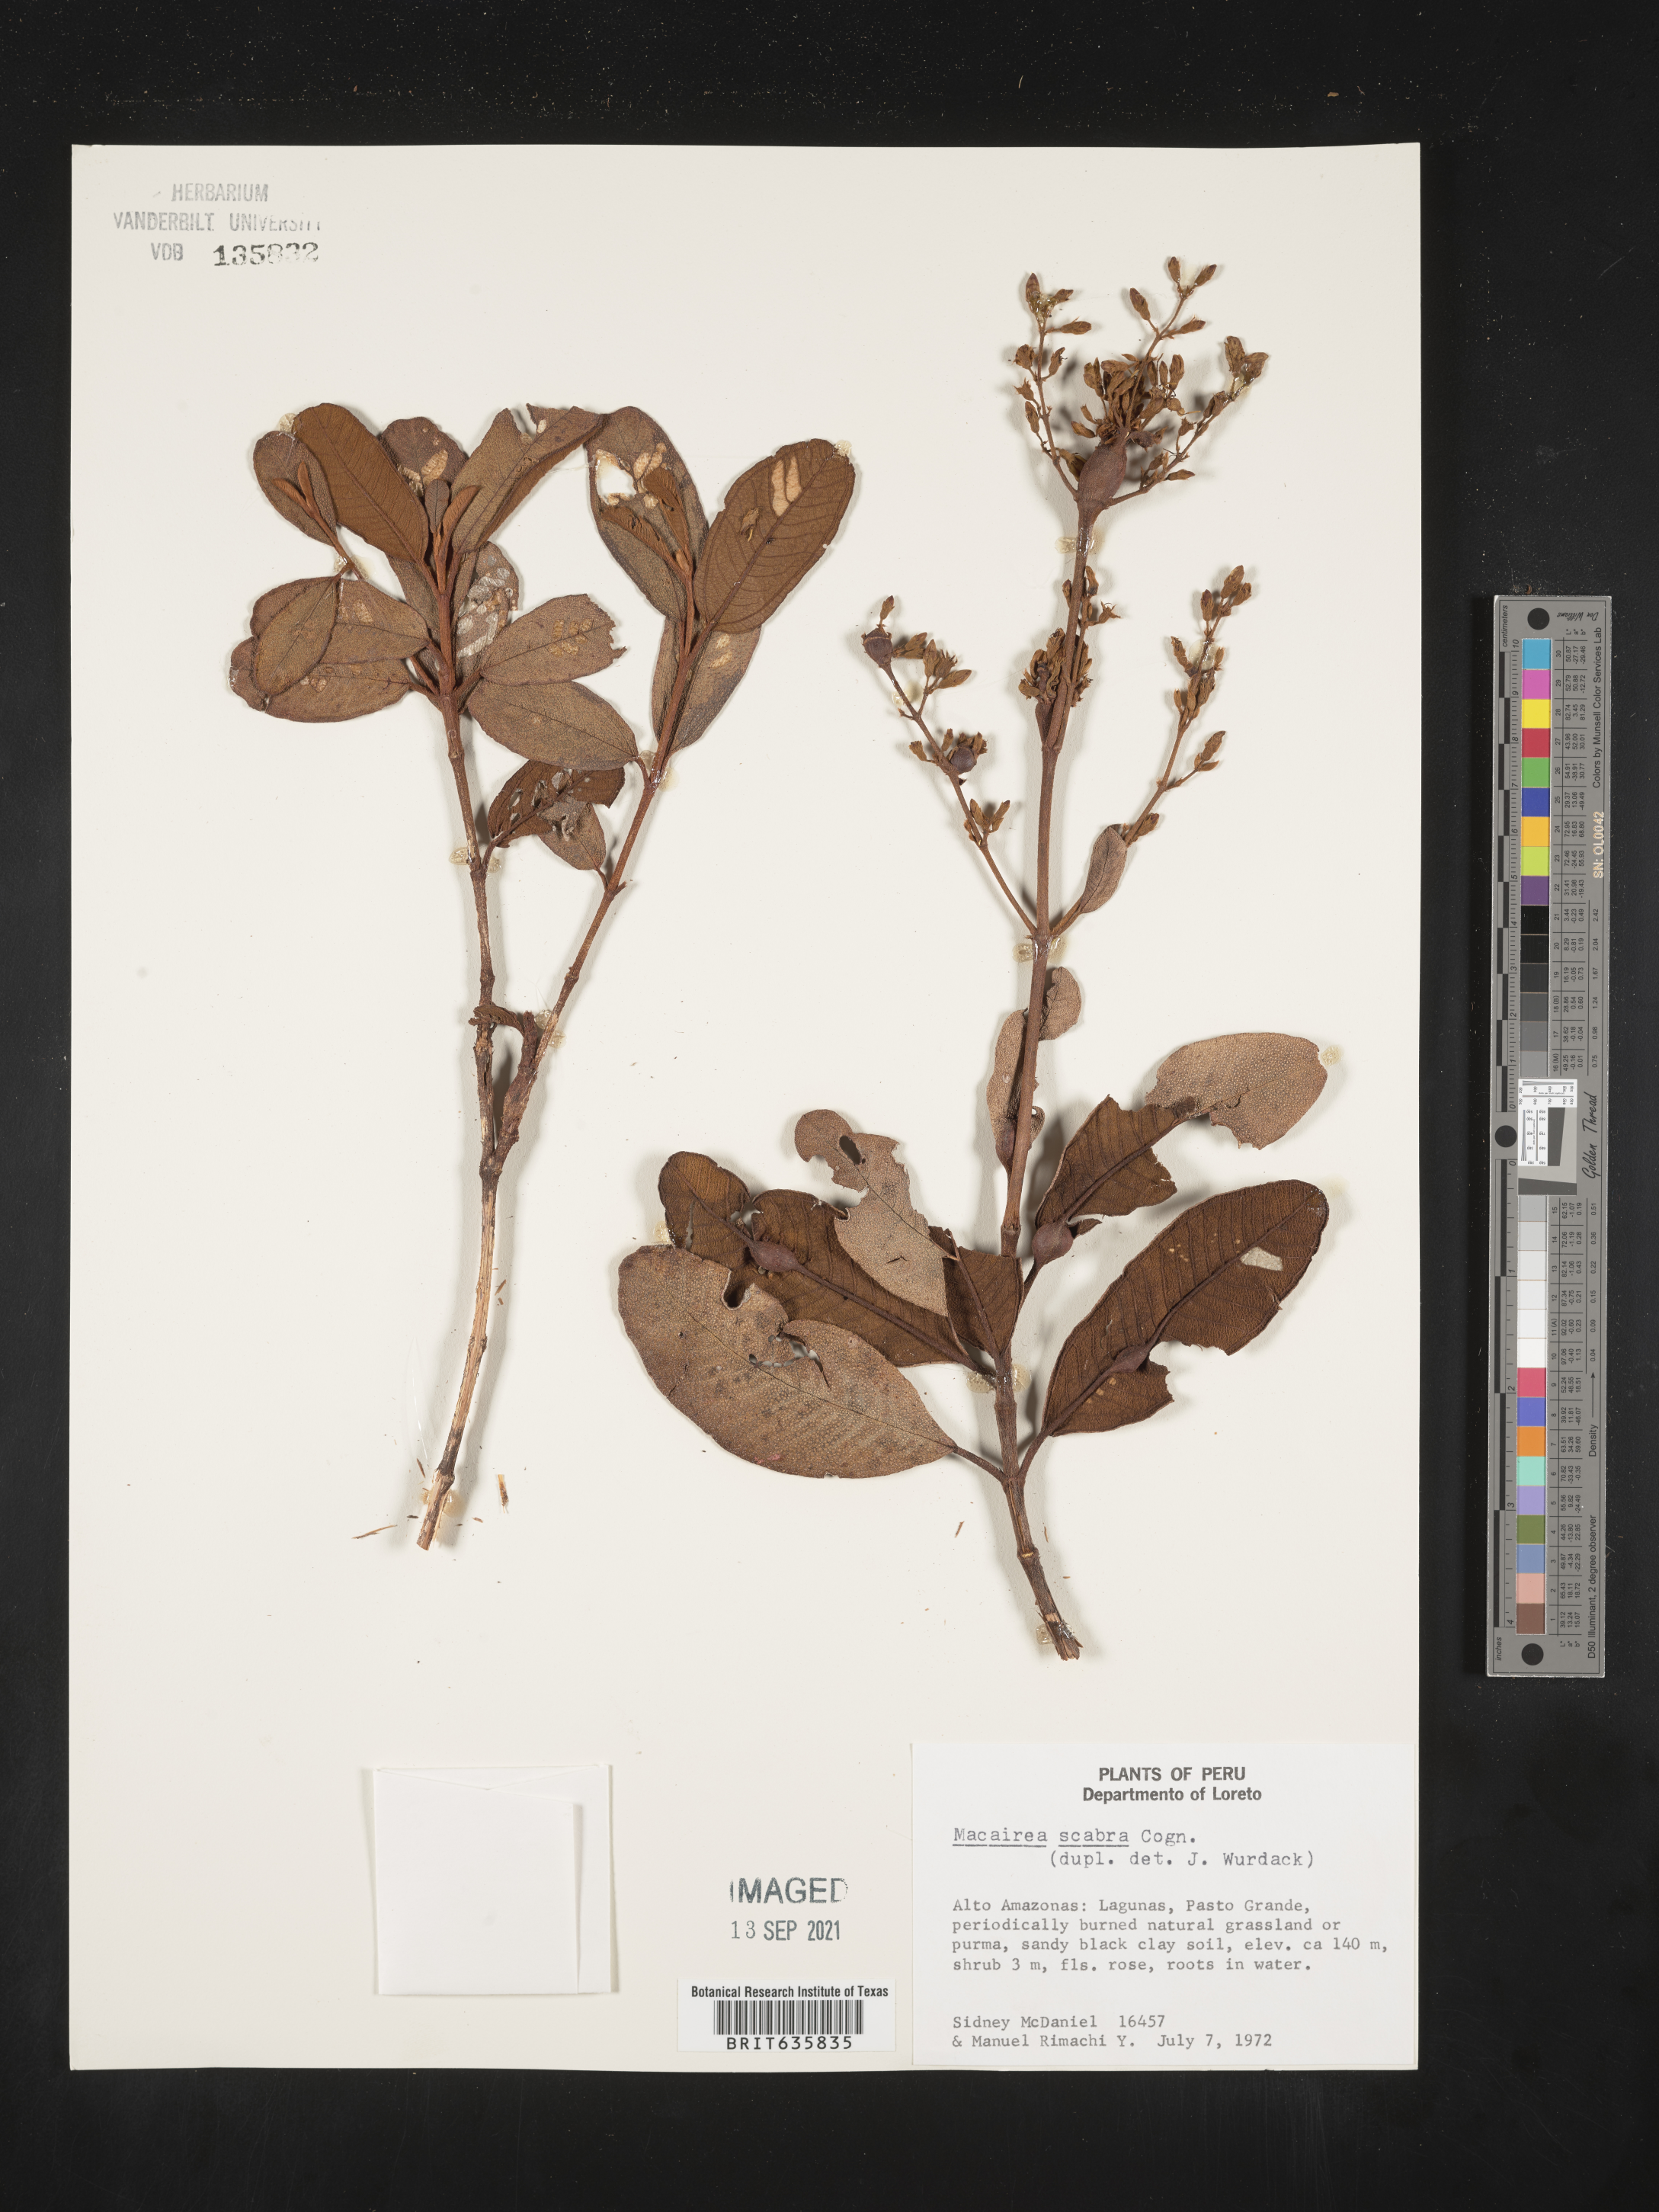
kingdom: Plantae
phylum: Tracheophyta
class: Magnoliopsida
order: Myrtales
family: Melastomataceae
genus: Macairea
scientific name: Macairea
